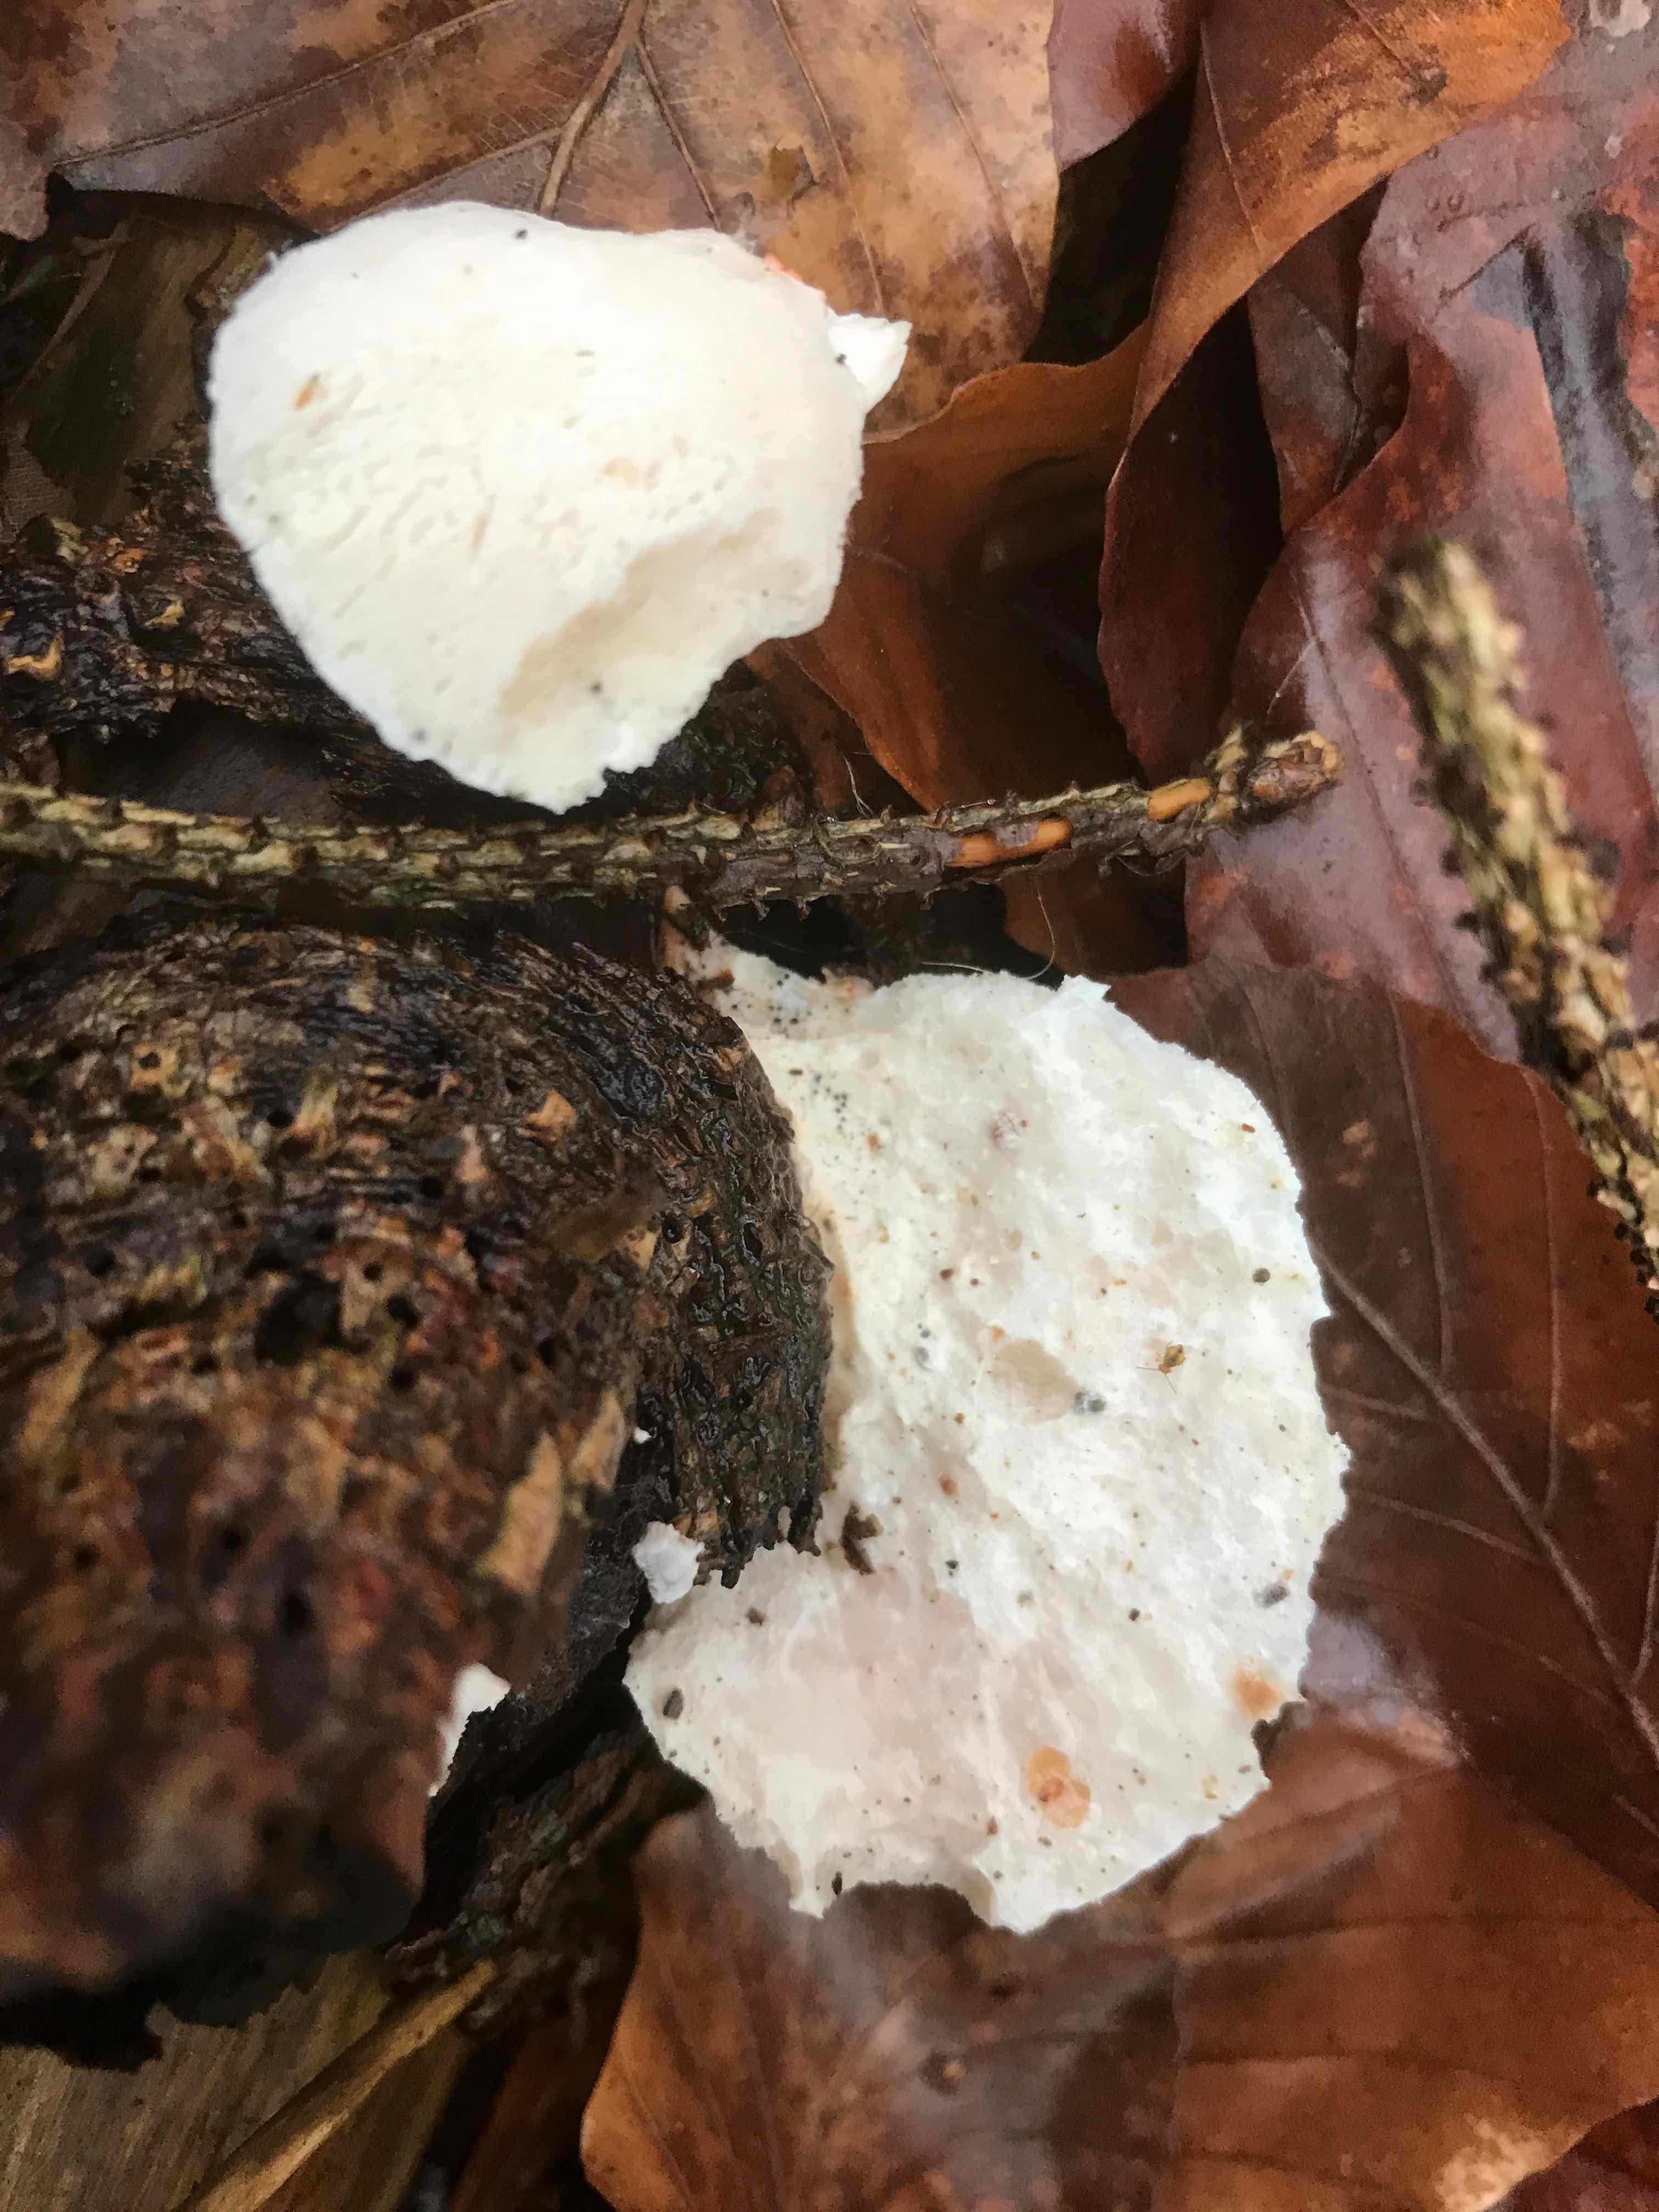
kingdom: Fungi
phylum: Basidiomycota
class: Agaricomycetes
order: Polyporales
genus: Amaropostia
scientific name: Amaropostia stiptica
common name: bitter kødporesvamp
